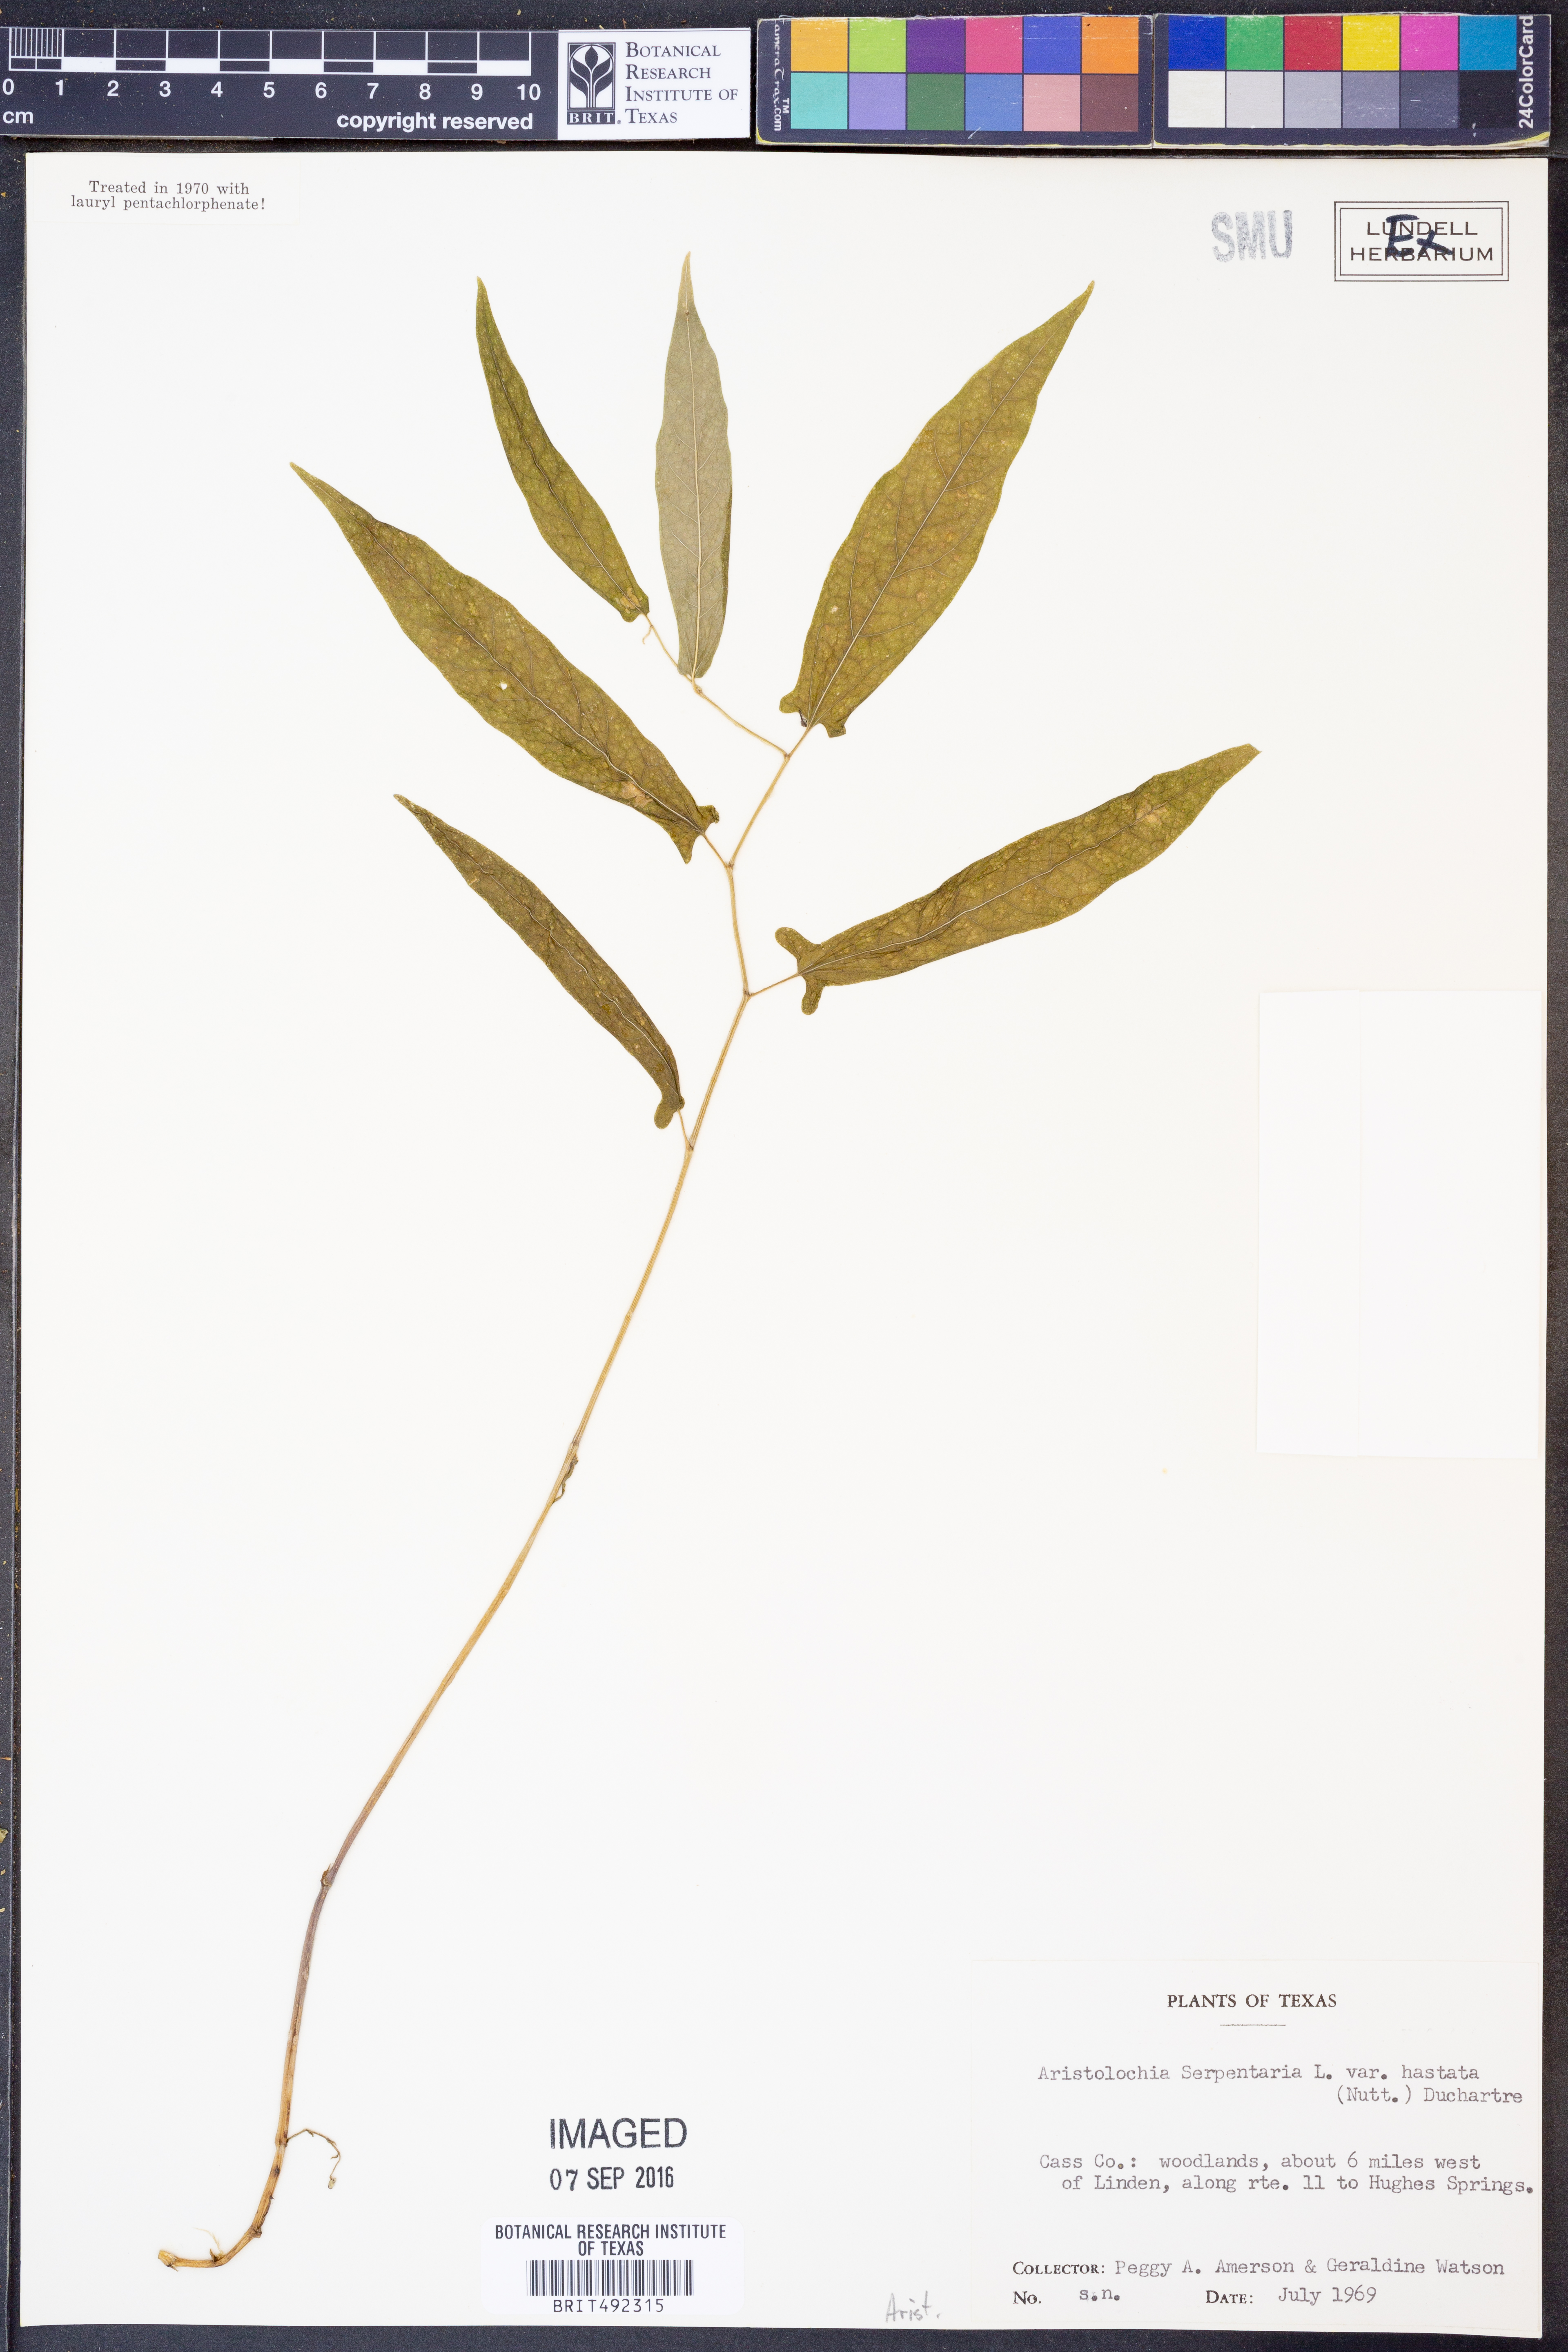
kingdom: Plantae
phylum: Tracheophyta
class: Magnoliopsida
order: Piperales
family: Aristolochiaceae
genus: Endodeca
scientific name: Endodeca serpentaria
